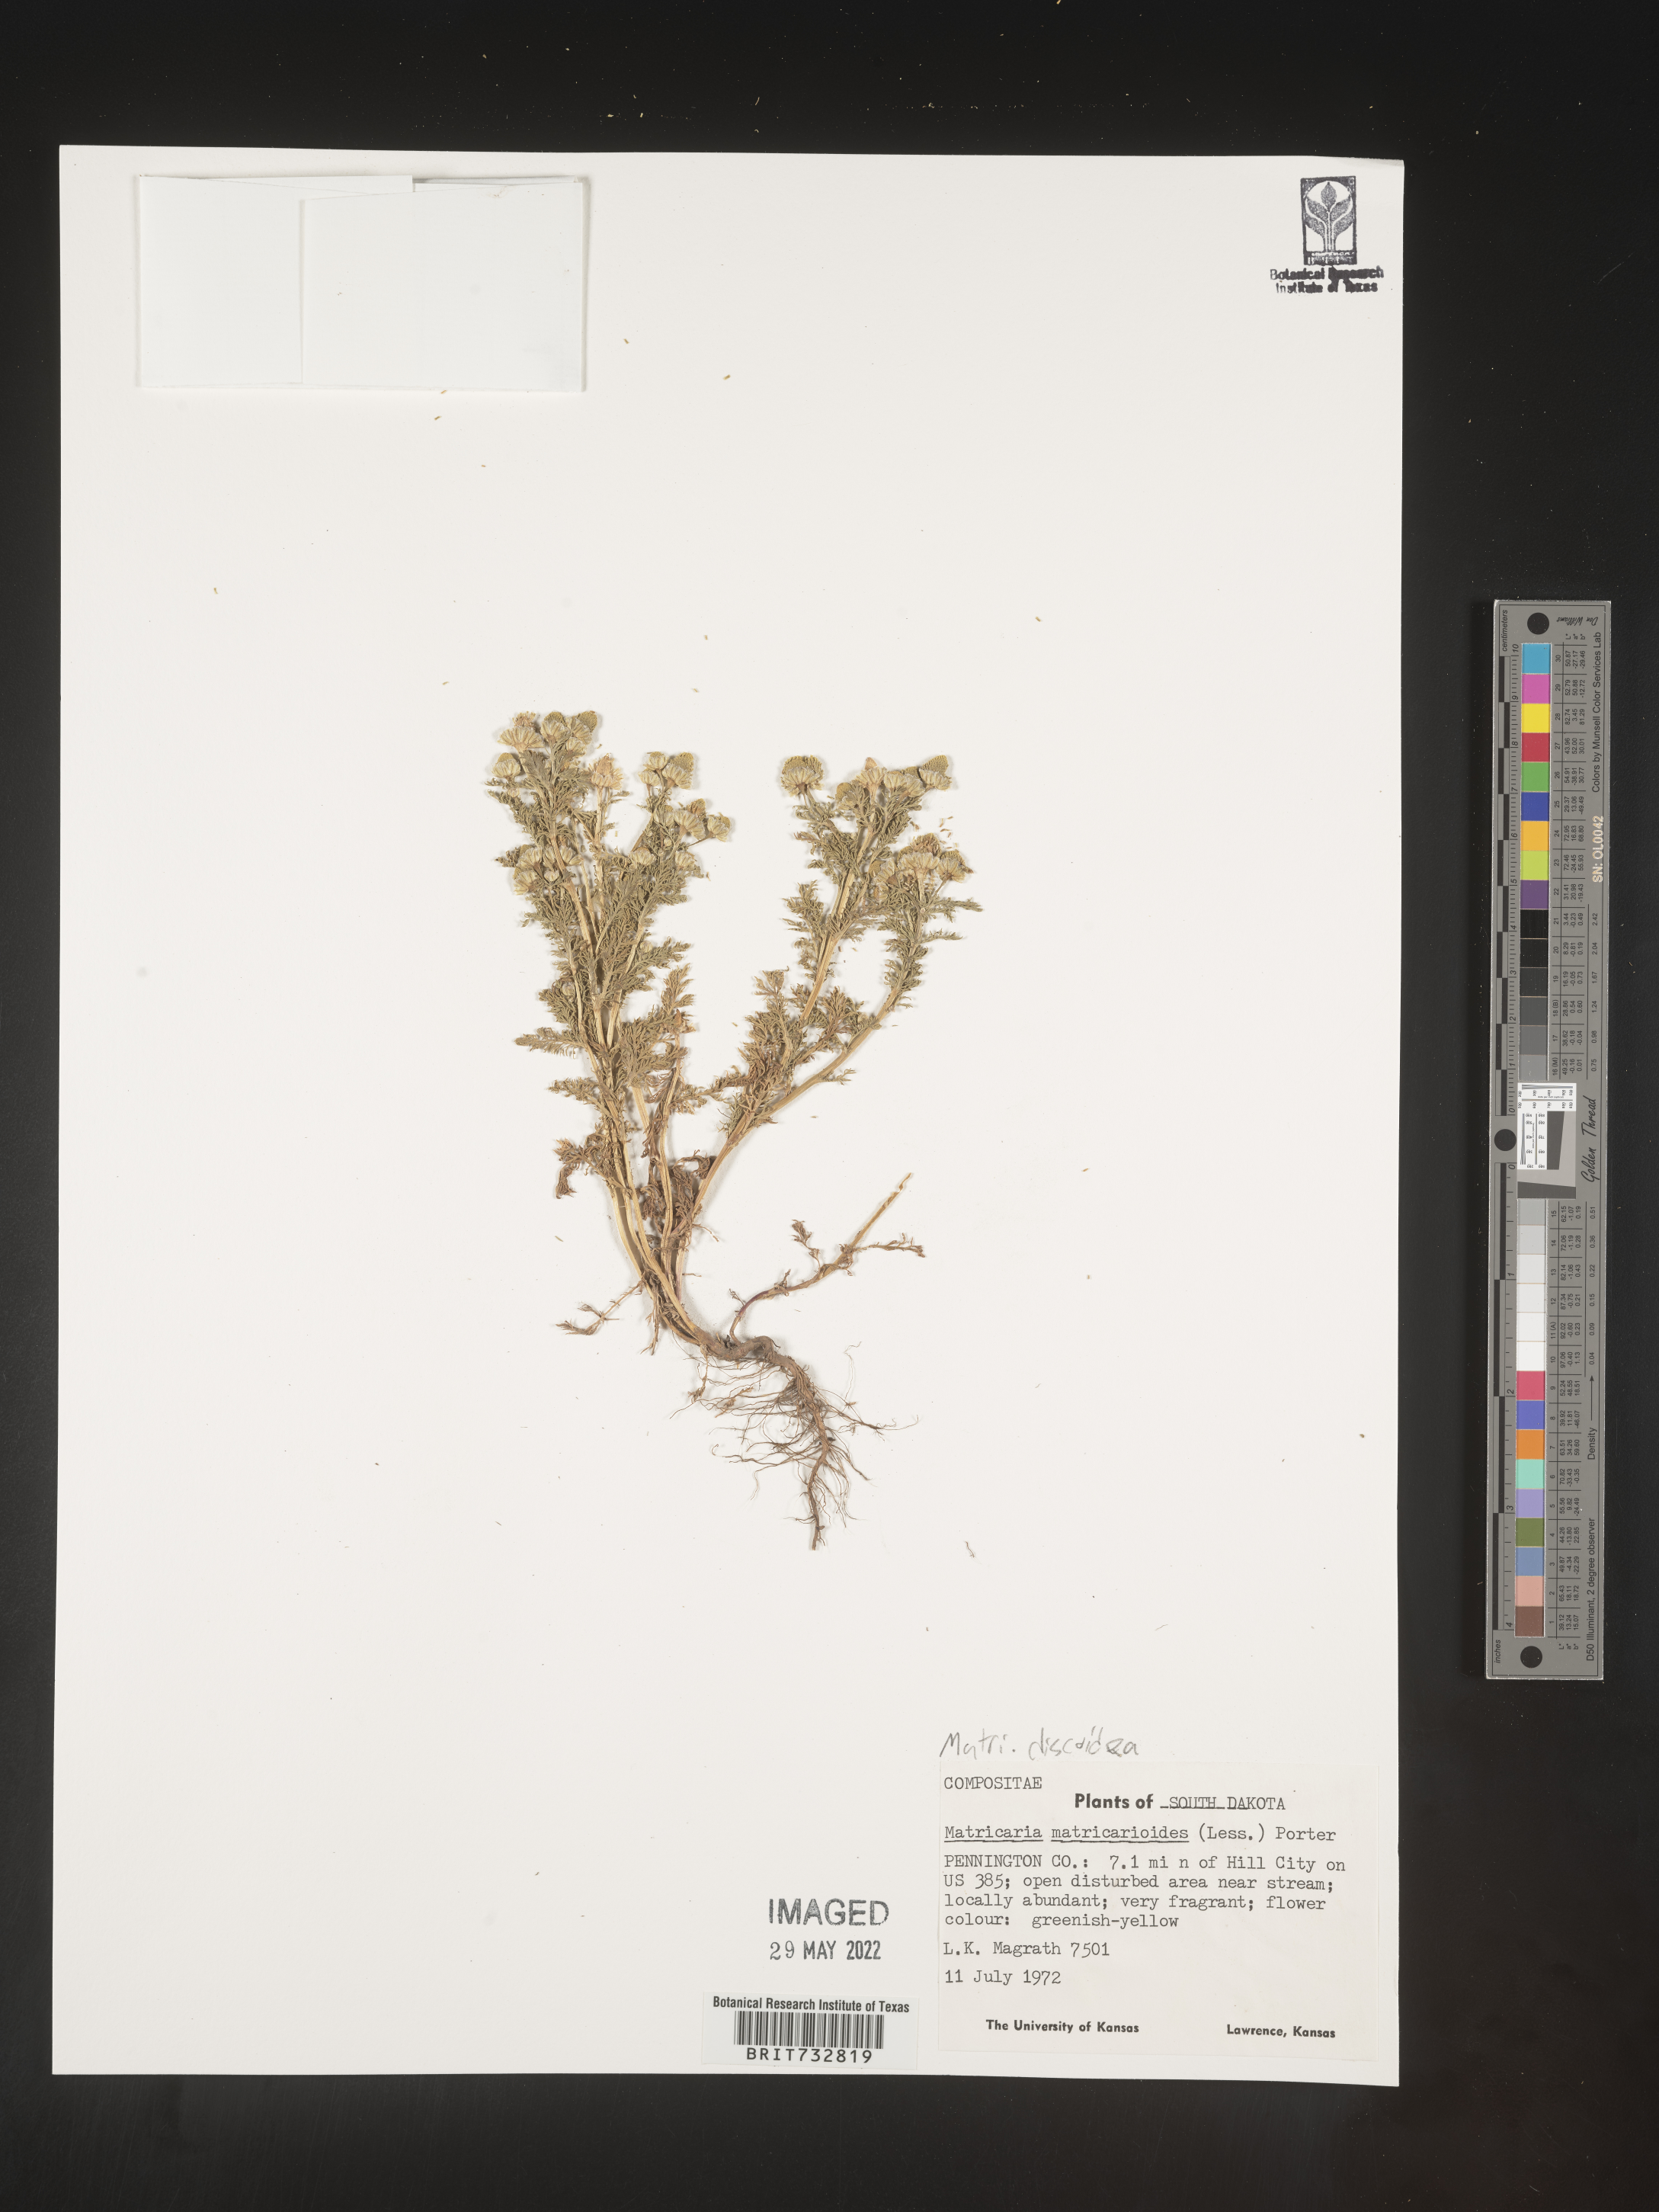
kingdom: Plantae
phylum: Tracheophyta
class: Magnoliopsida
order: Asterales
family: Asteraceae
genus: Matricaria
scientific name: Matricaria discoidea
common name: Disc mayweed
